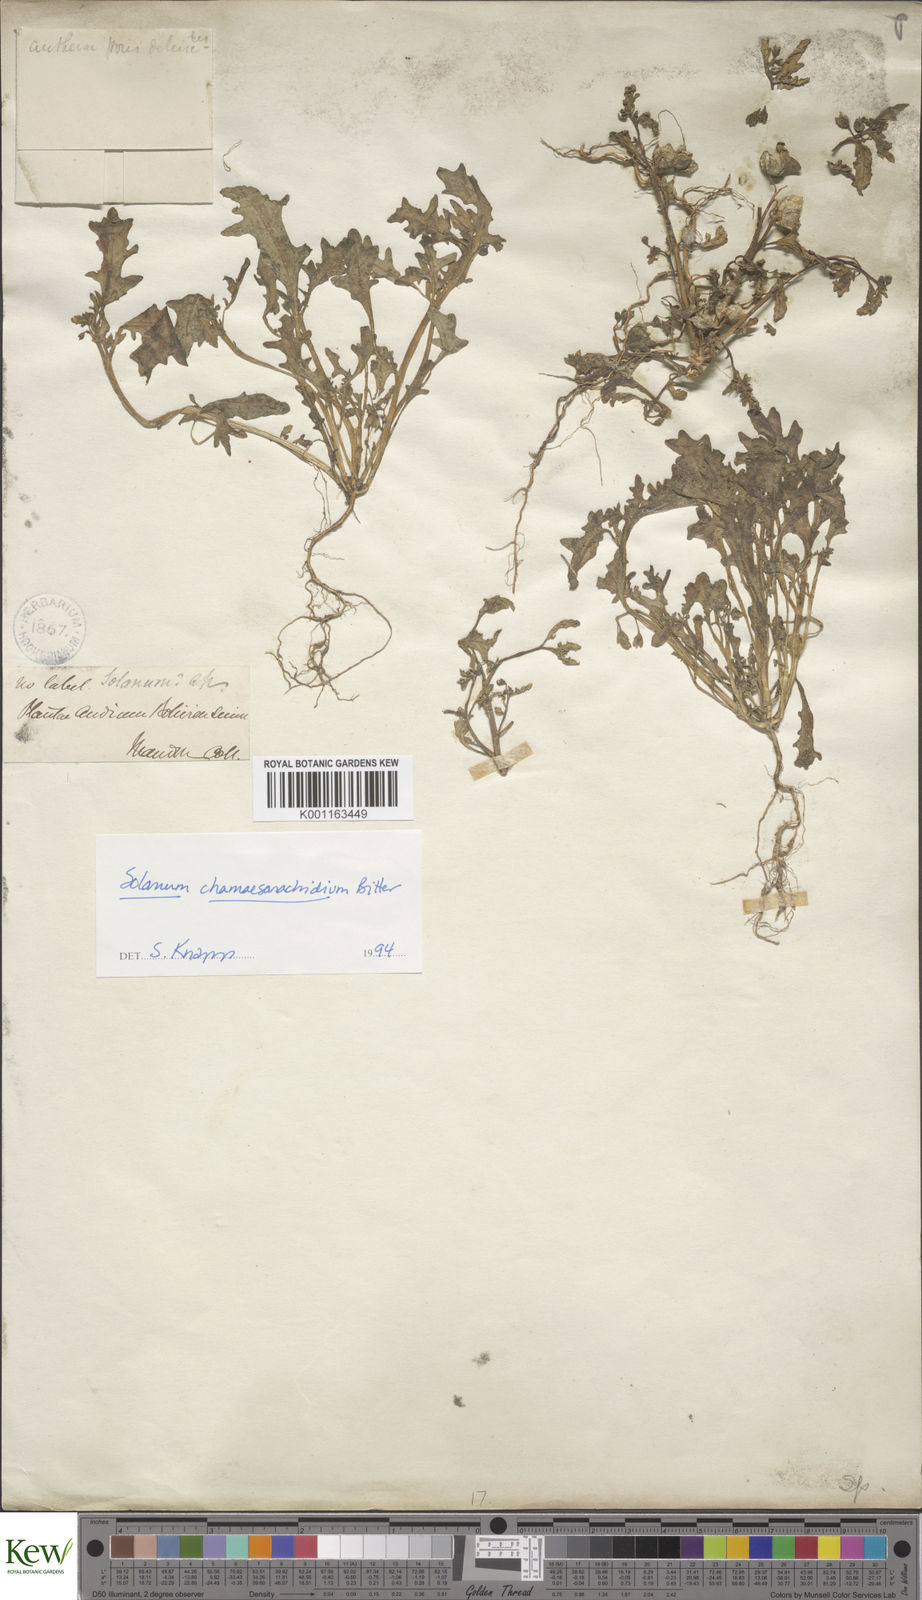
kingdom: Plantae
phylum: Tracheophyta
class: Magnoliopsida
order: Solanales
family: Solanaceae
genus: Solanum
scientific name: Solanum weddellii
